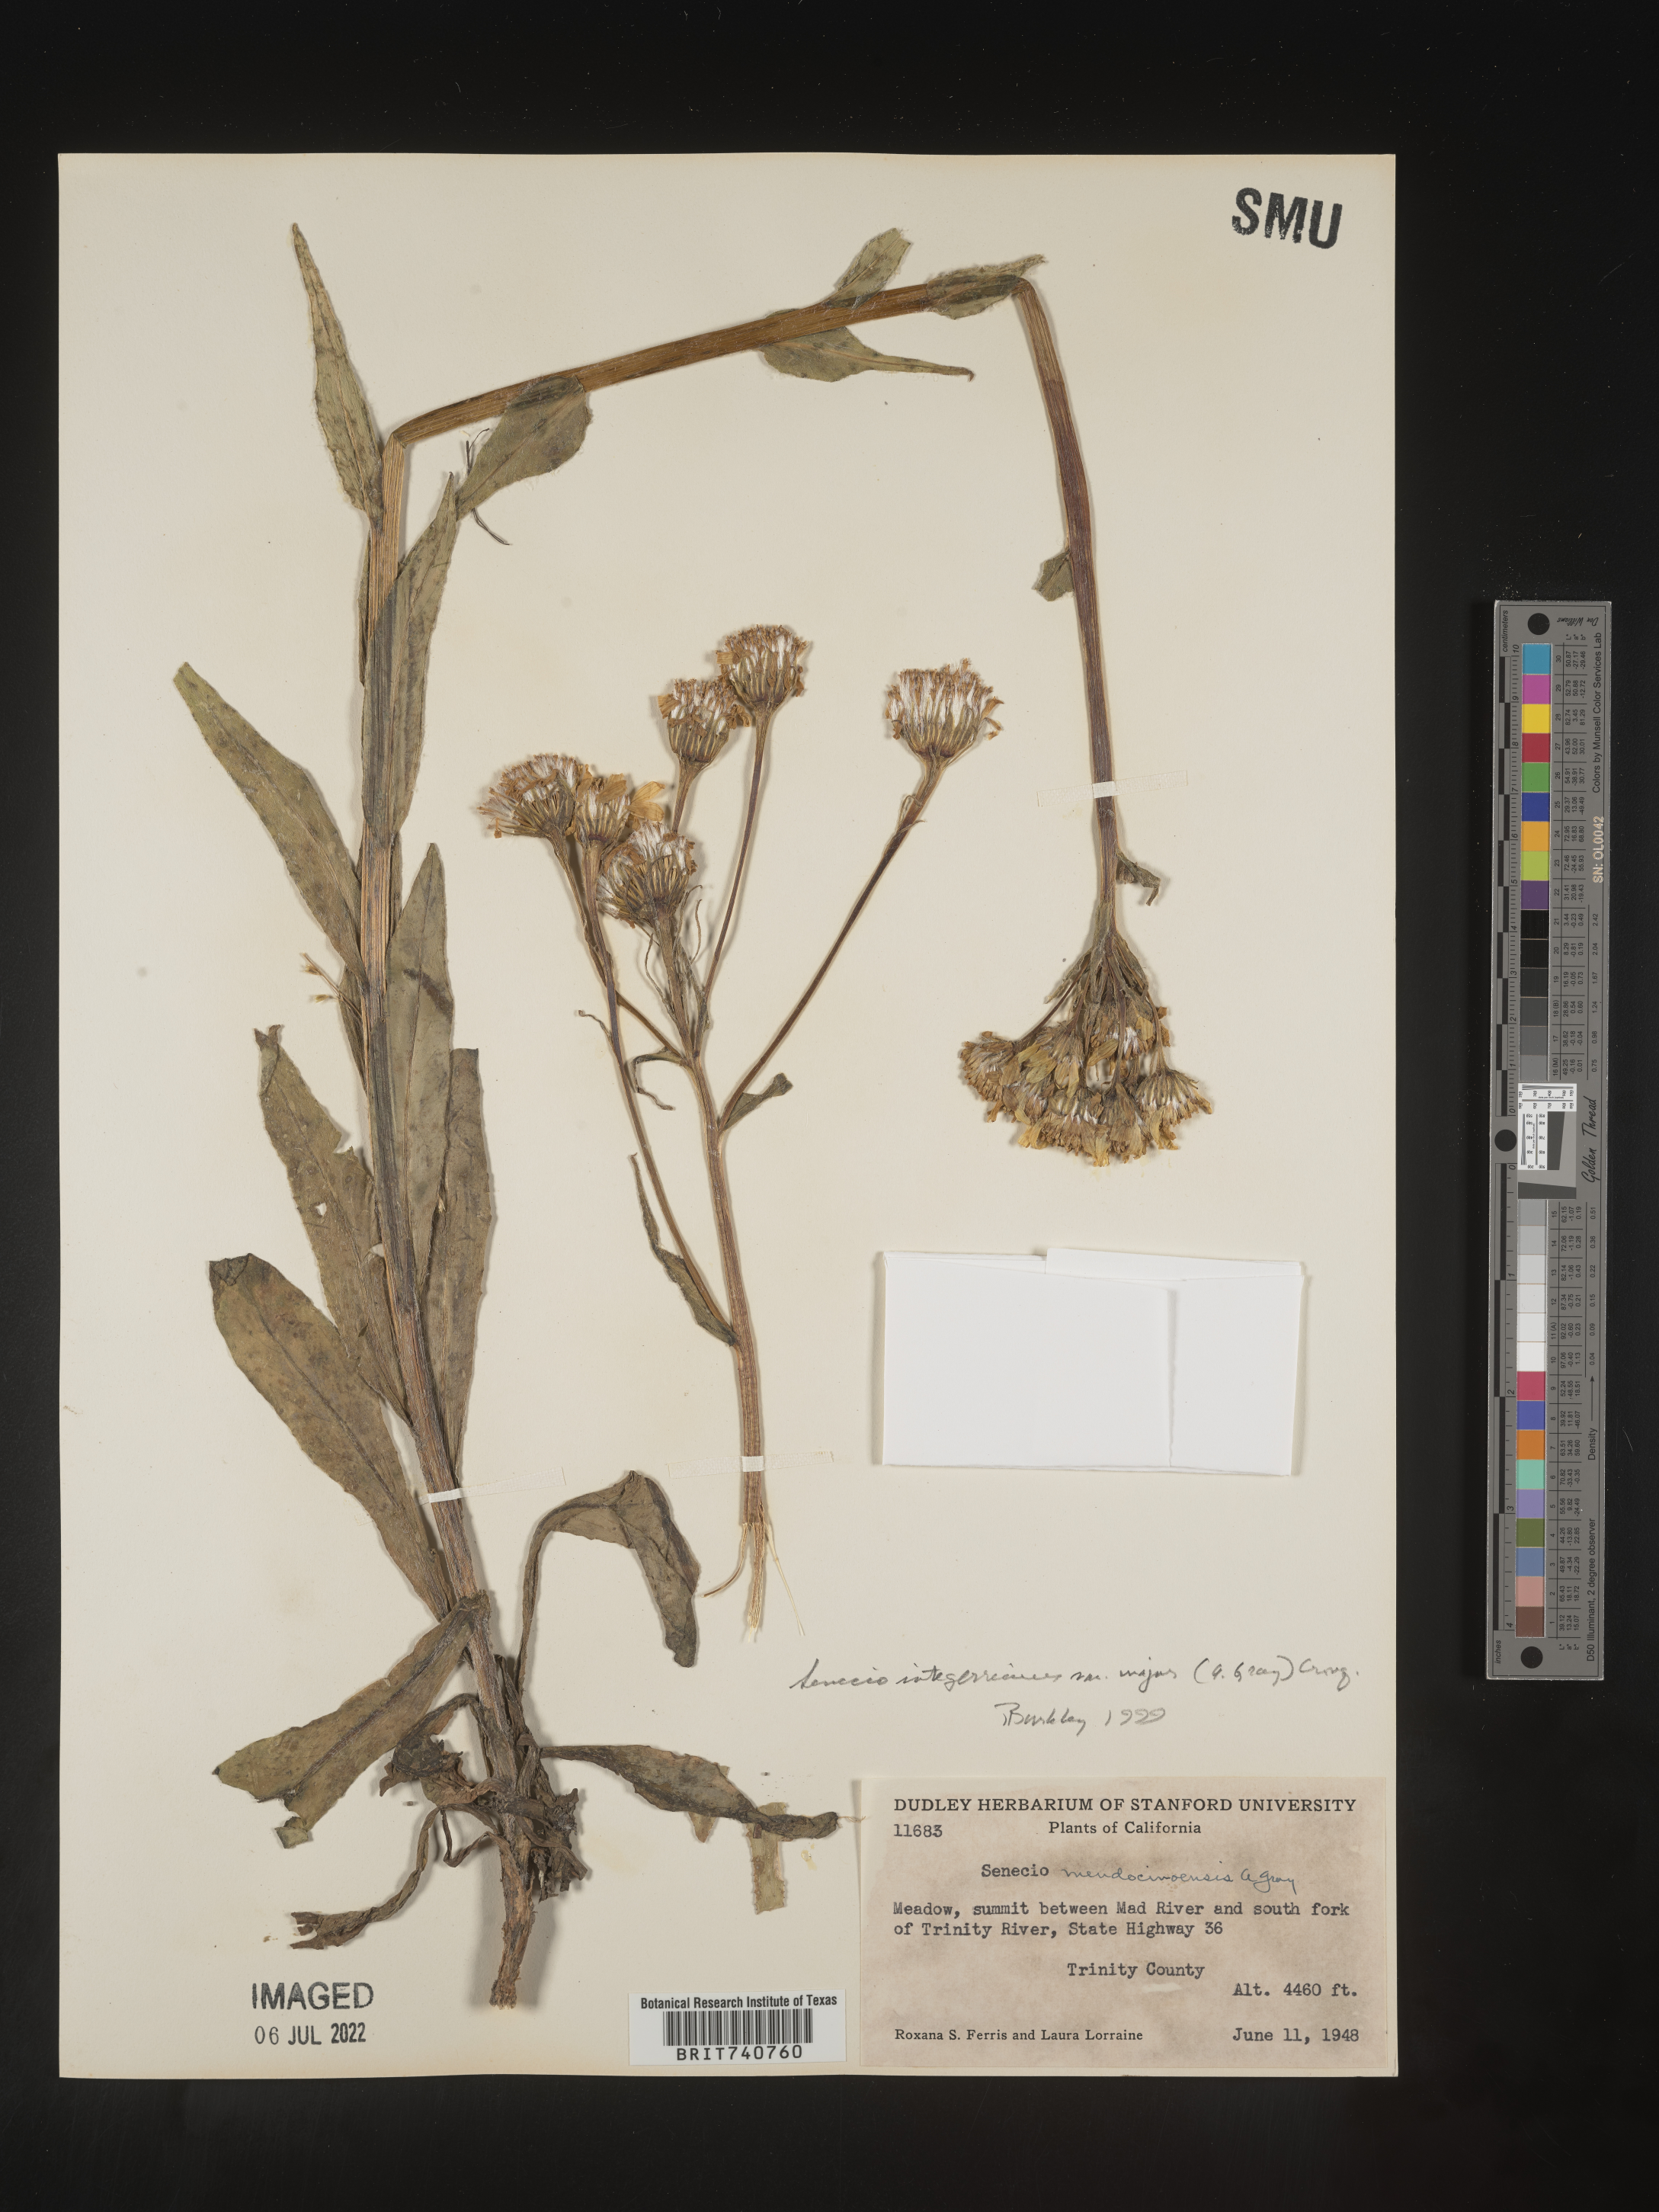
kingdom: Plantae
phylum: Tracheophyta
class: Magnoliopsida
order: Asterales
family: Asteraceae
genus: Senecio
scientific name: Senecio integerrimus
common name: Gaugeplant
